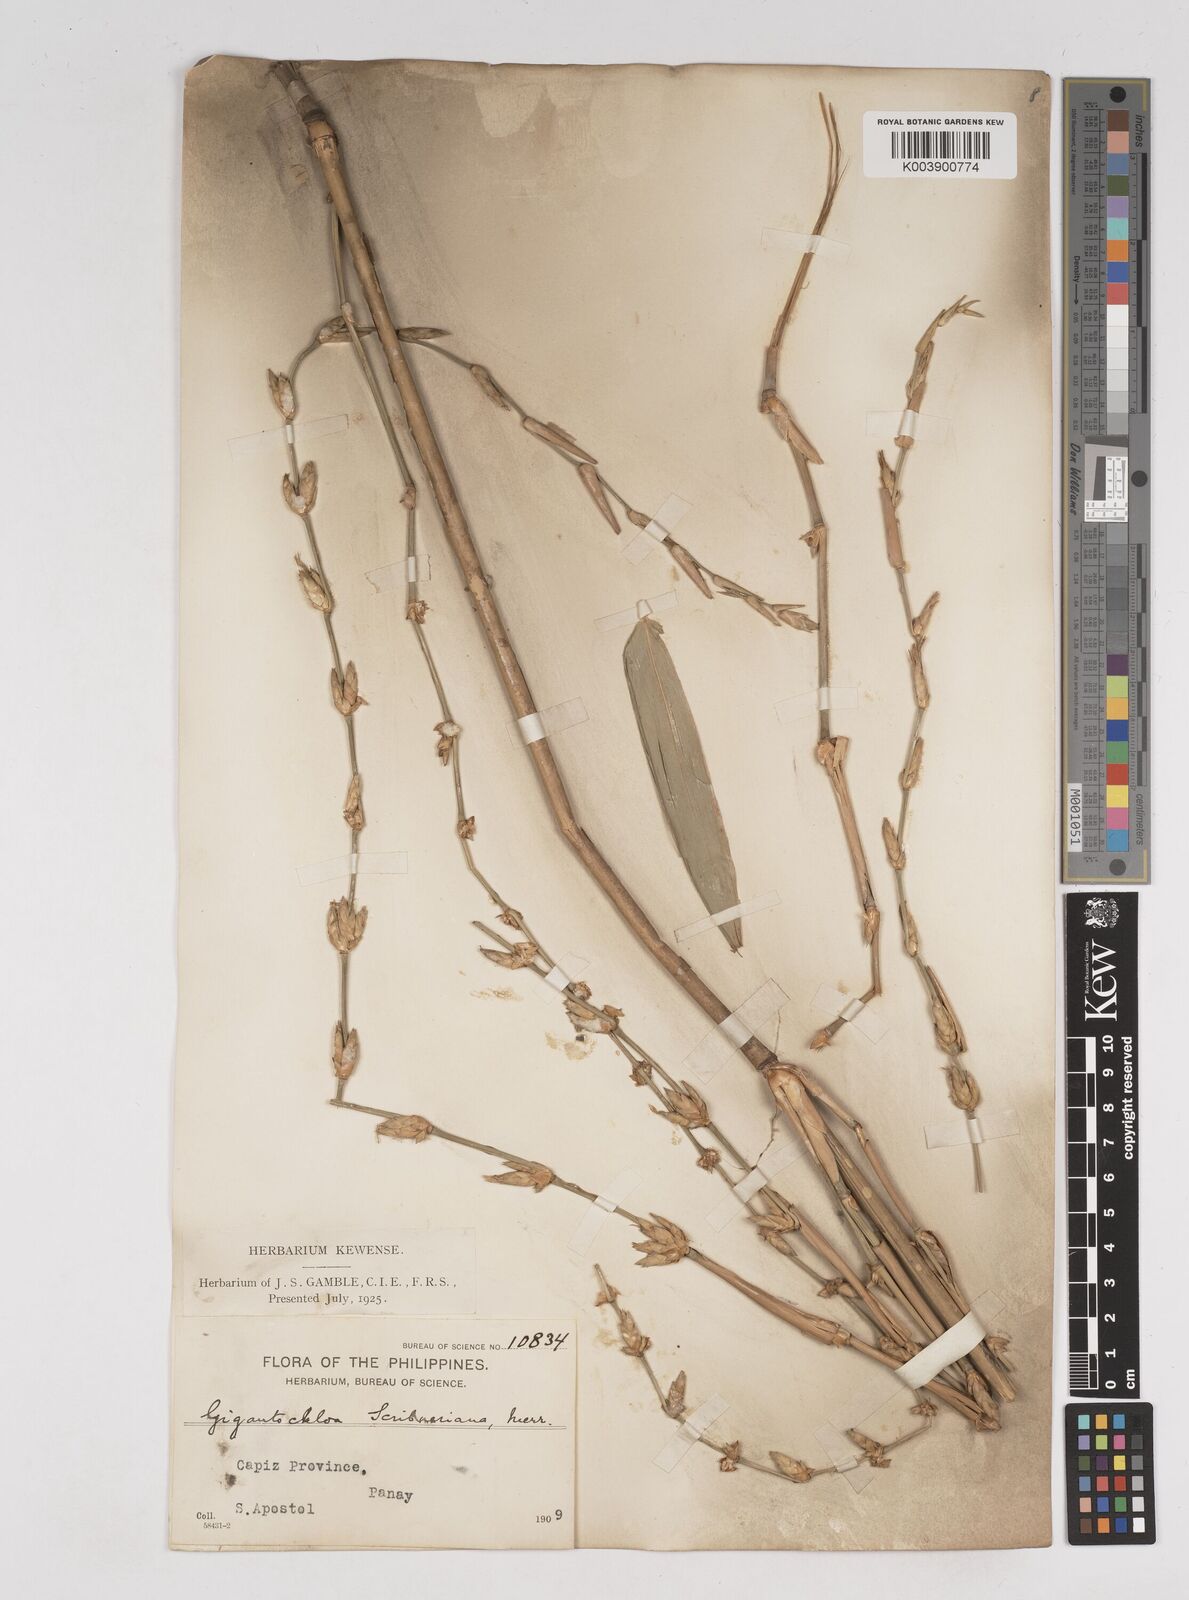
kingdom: Plantae
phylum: Tracheophyta
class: Liliopsida
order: Poales
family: Poaceae
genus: Gigantochloa
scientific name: Gigantochloa levis
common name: Smooth-shoot gigantochloa
